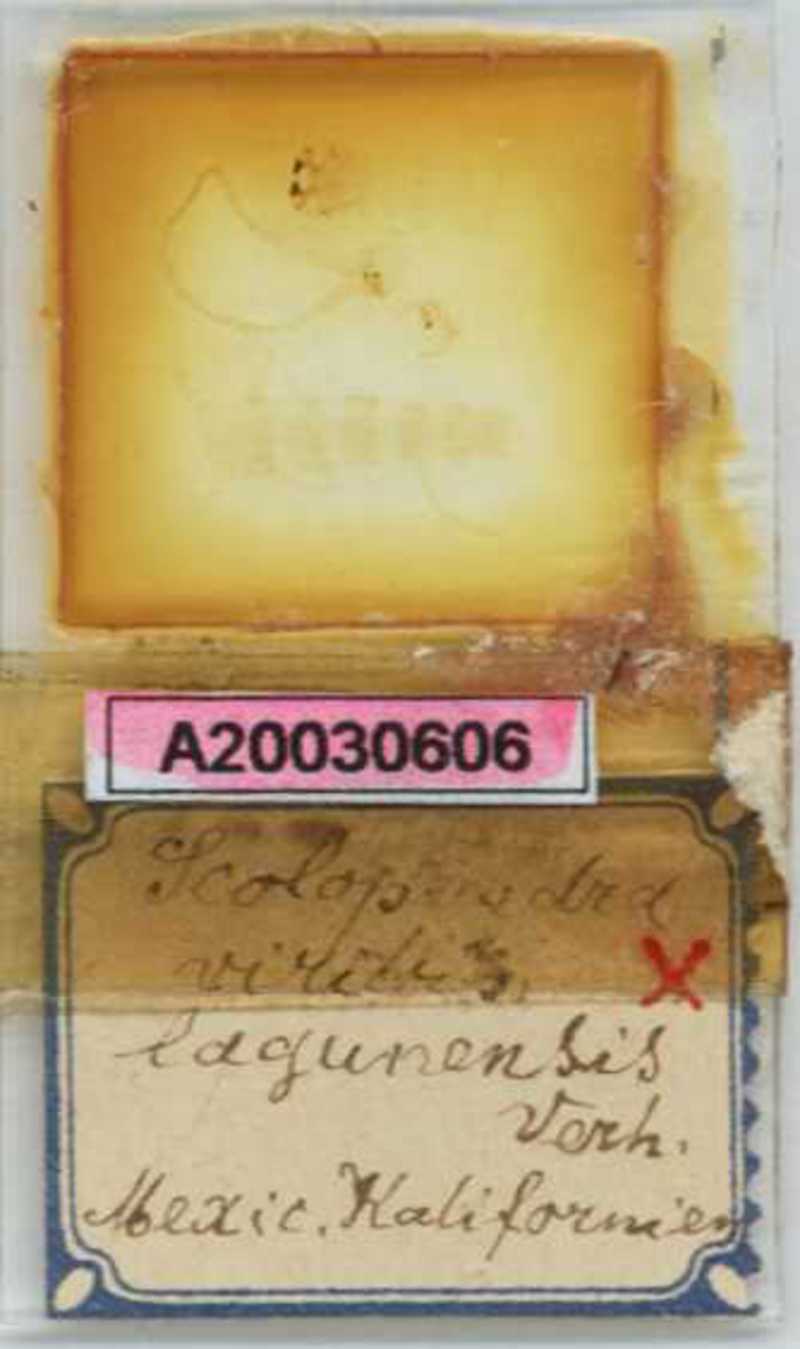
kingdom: Animalia
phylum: Arthropoda
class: Chilopoda
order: Scolopendromorpha
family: Scolopendridae
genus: Scolopendra
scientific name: Scolopendra viridis
